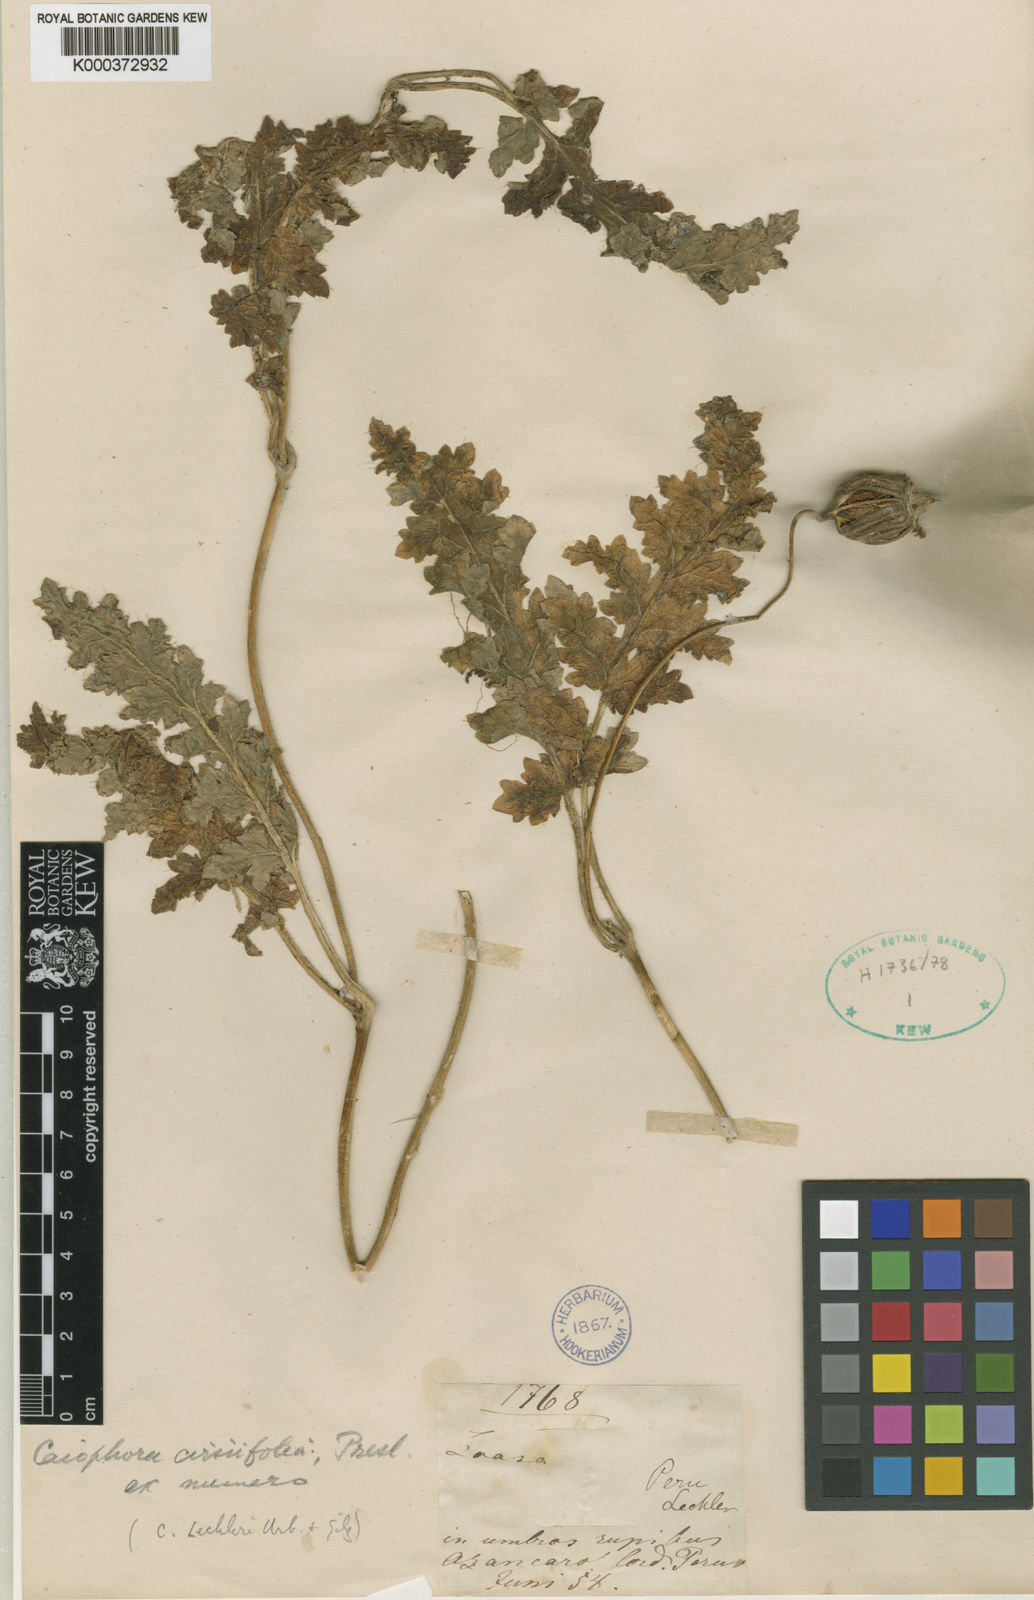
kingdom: Plantae
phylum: Tracheophyta
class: Magnoliopsida
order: Cornales
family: Loasaceae
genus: Caiophora
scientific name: Caiophora
